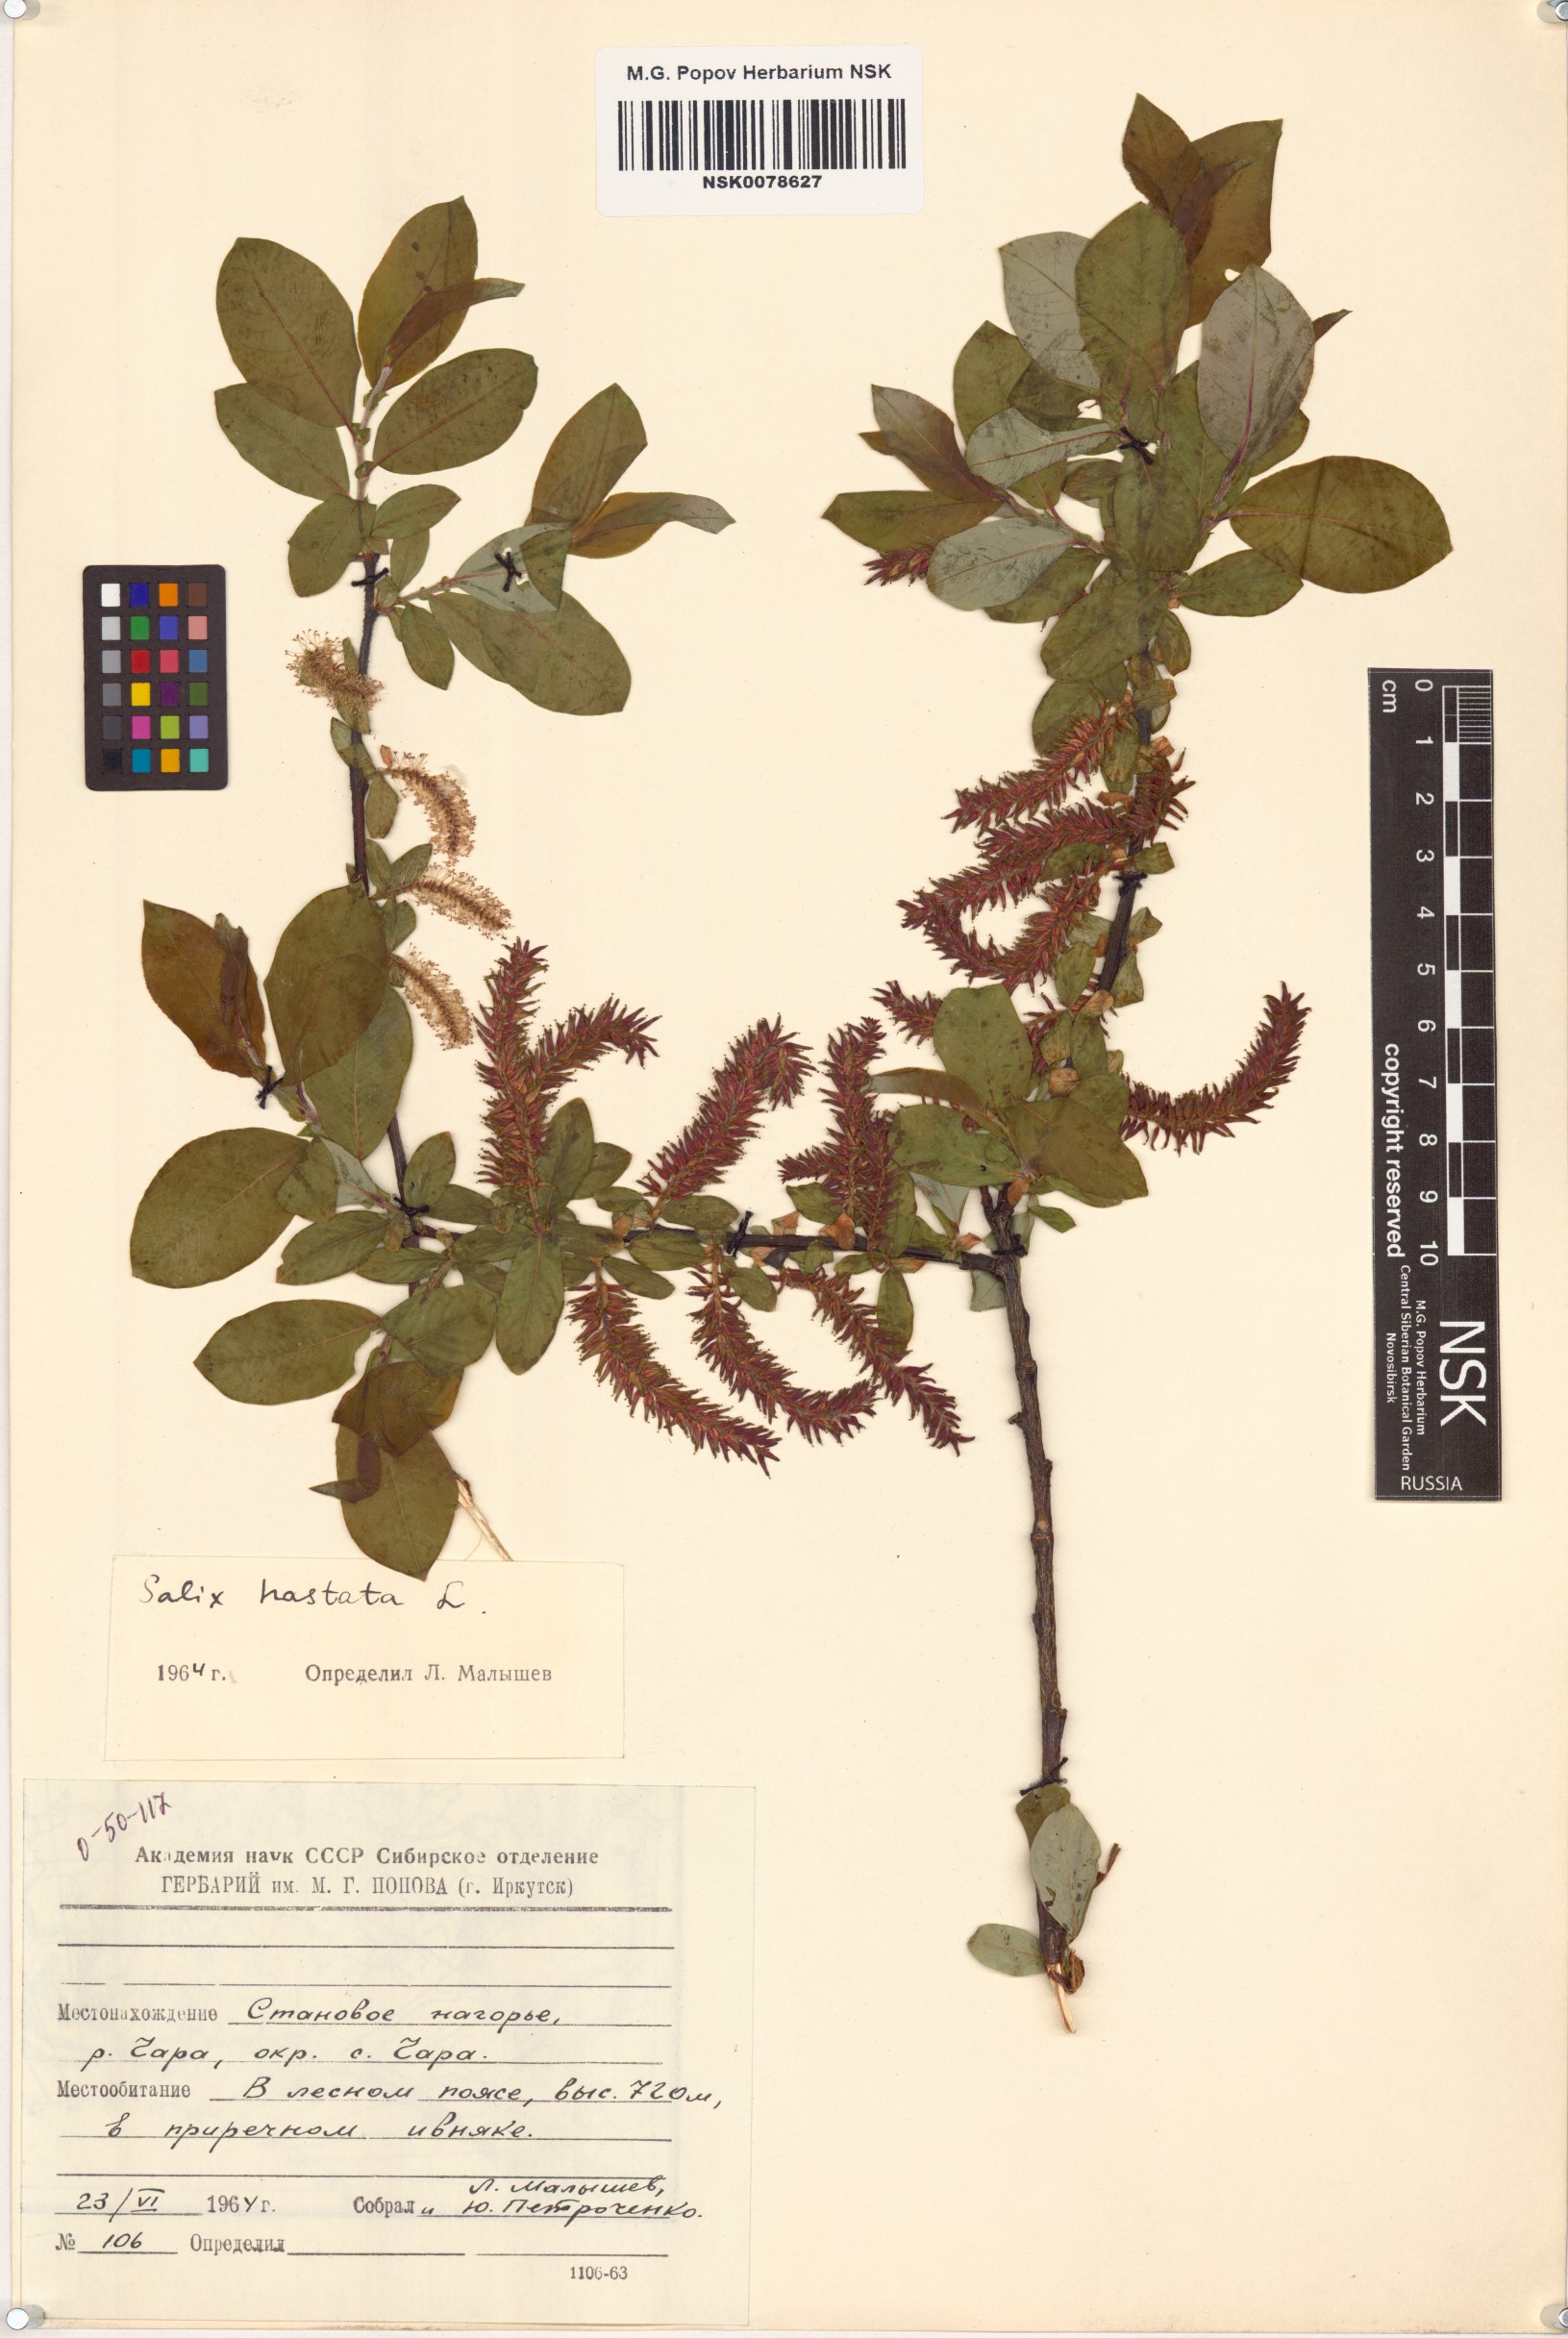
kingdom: Plantae
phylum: Tracheophyta
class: Magnoliopsida
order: Malpighiales
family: Salicaceae
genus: Salix
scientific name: Salix hastata
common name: Halberd willow
